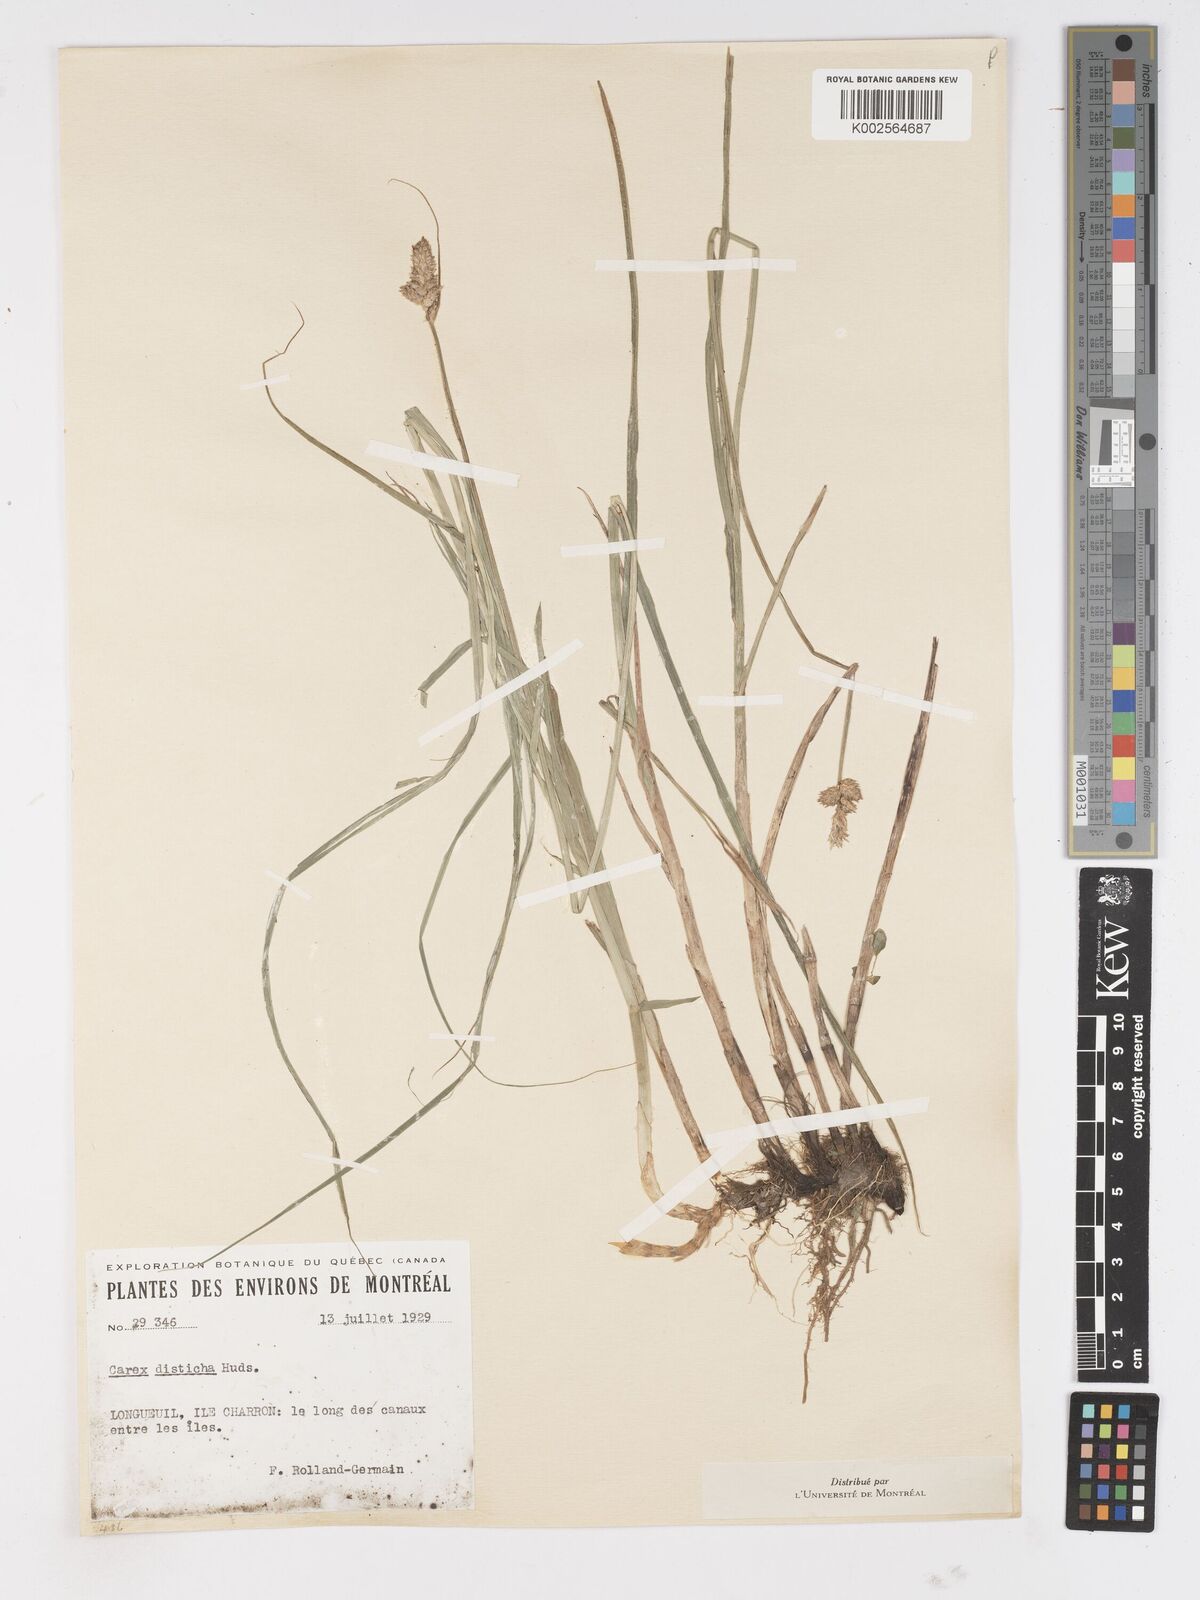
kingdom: Plantae
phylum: Tracheophyta
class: Liliopsida
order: Poales
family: Cyperaceae
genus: Carex
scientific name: Carex disticha
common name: Brown sedge
